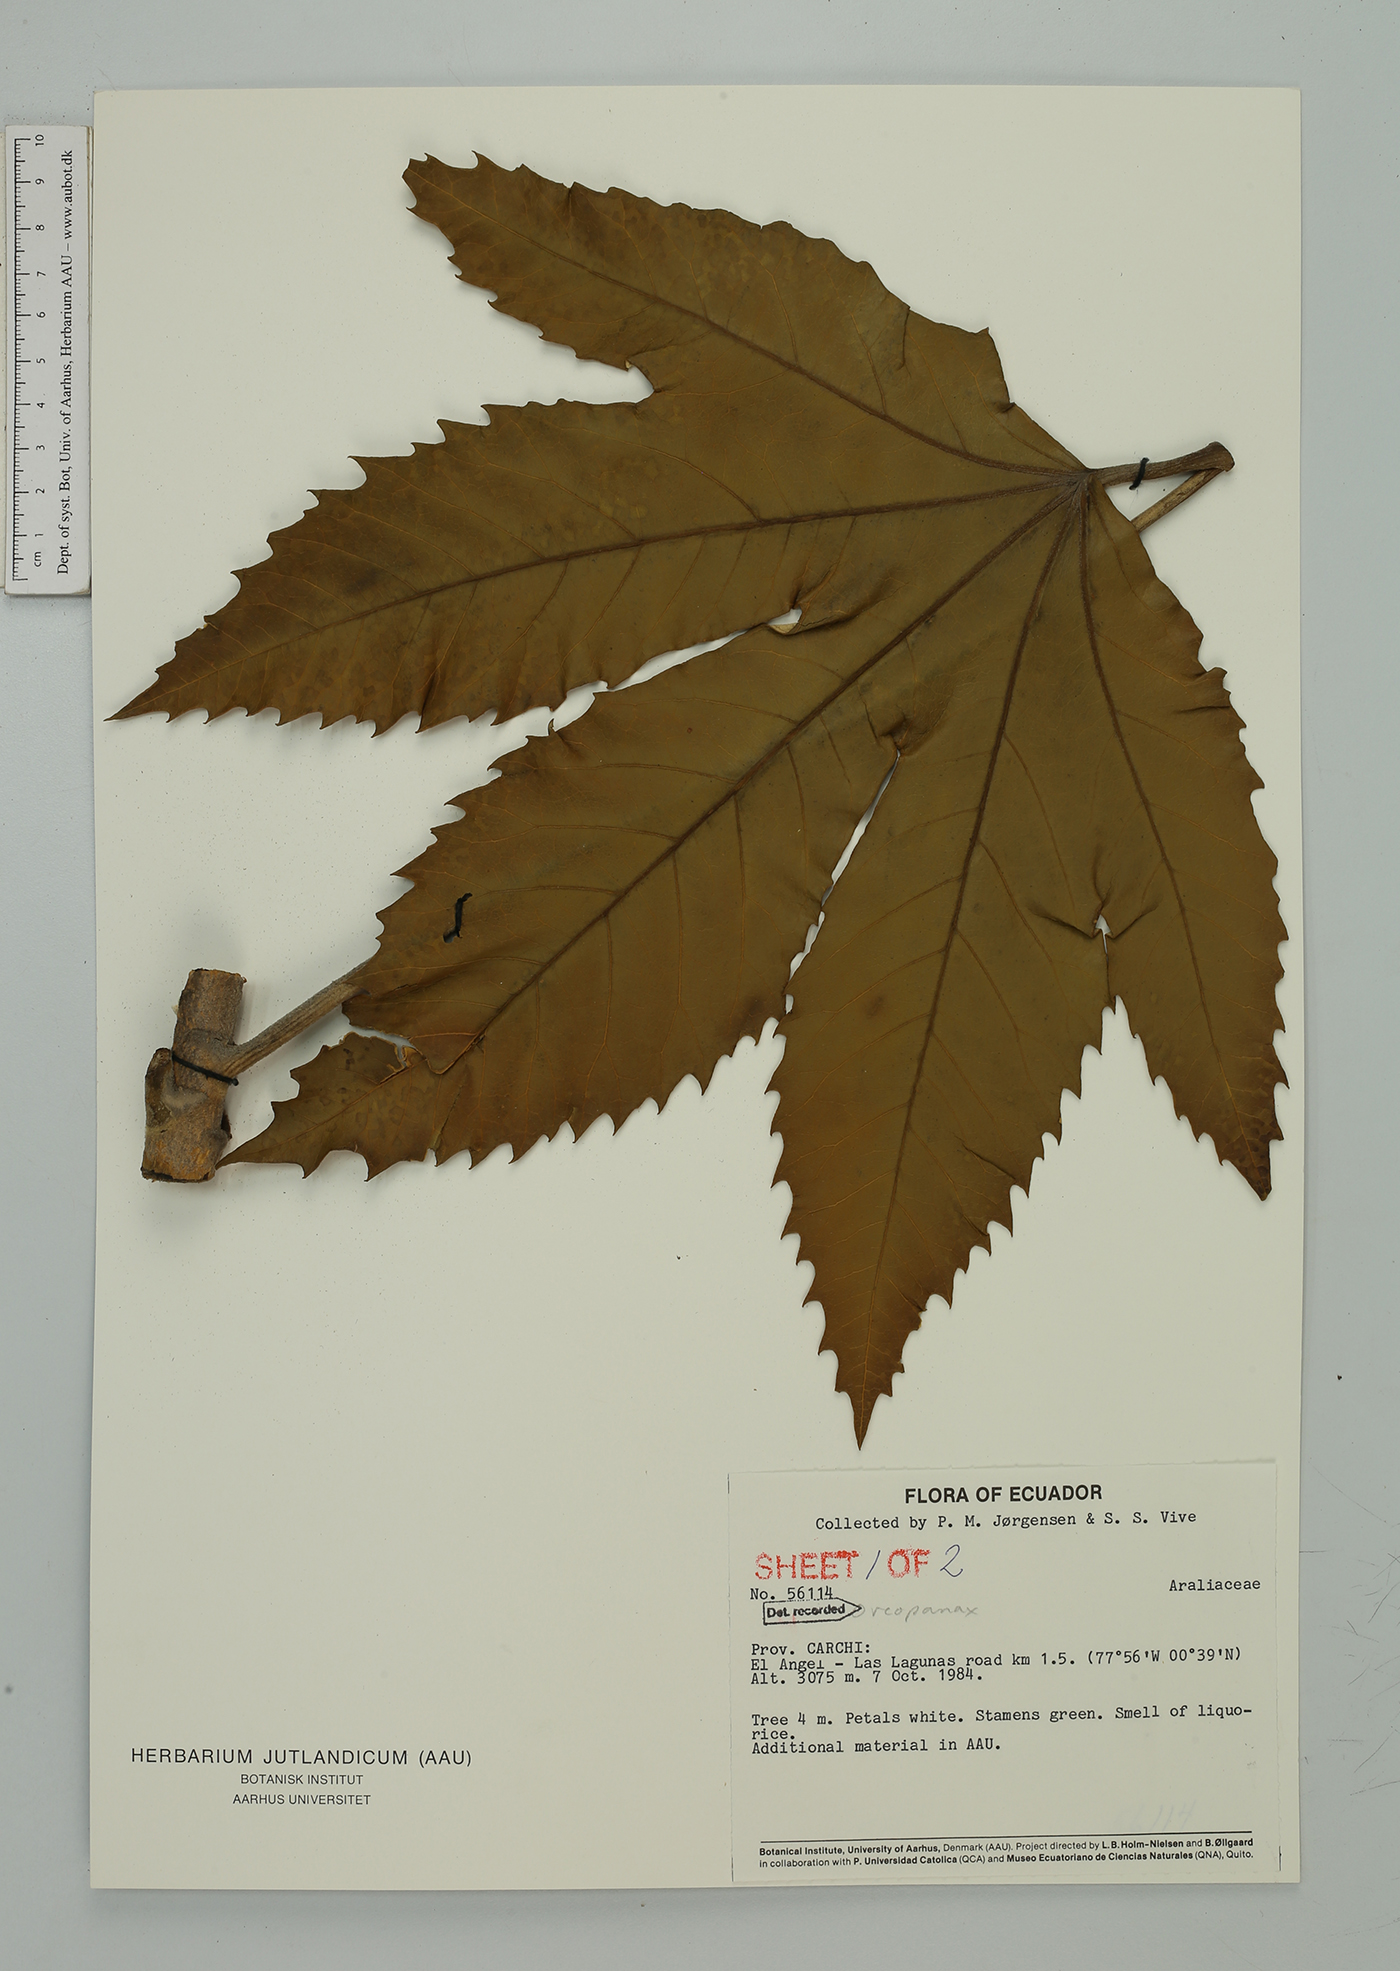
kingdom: Plantae
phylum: Tracheophyta
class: Magnoliopsida
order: Apiales
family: Araliaceae
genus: Oreopanax
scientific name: Oreopanax
